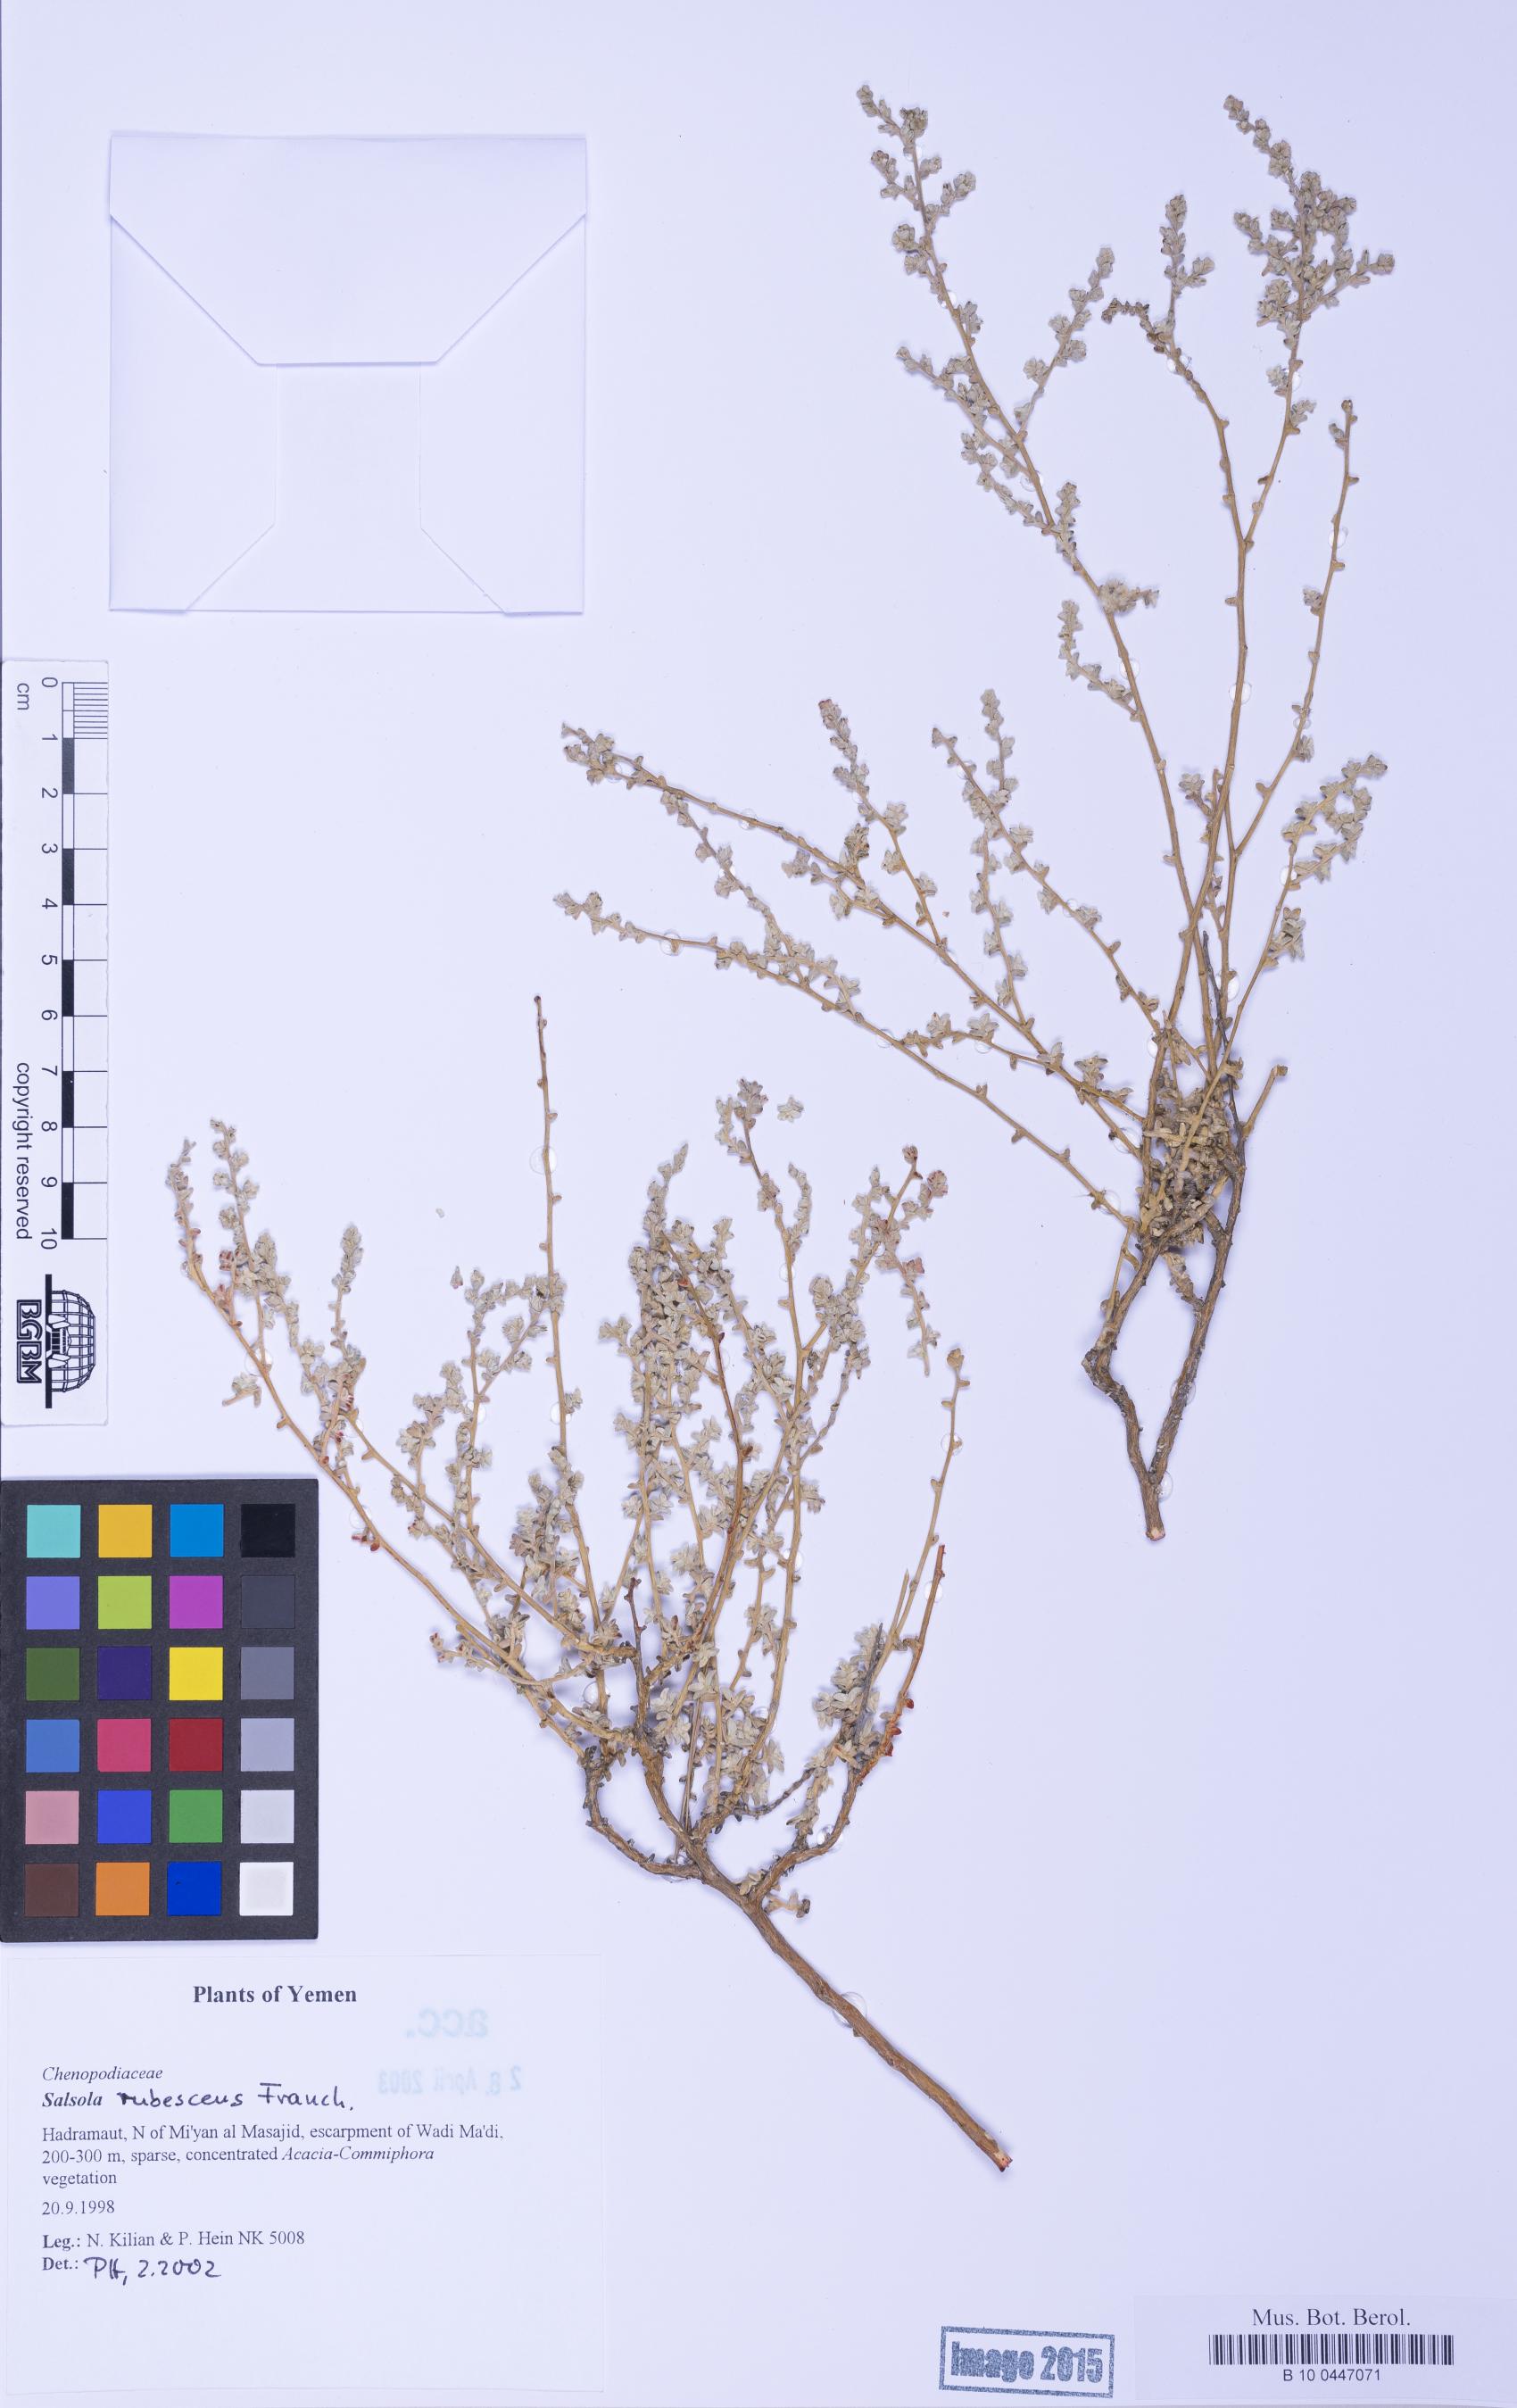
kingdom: Plantae
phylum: Tracheophyta
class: Magnoliopsida
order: Caryophyllales
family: Amaranthaceae
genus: Kaviria
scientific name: Kaviria rubescens
